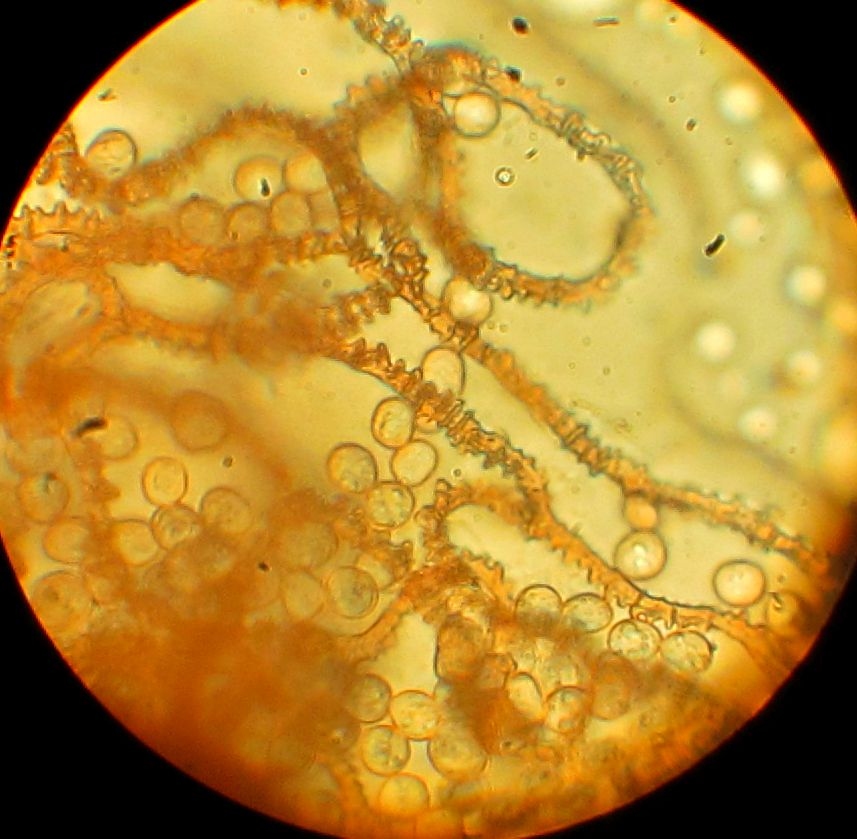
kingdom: Protozoa
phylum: Mycetozoa
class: Myxomycetes
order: Trichiales
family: Arcyriaceae
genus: Arcyria
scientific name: Arcyria denudata
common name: karminrød skålsvøb
